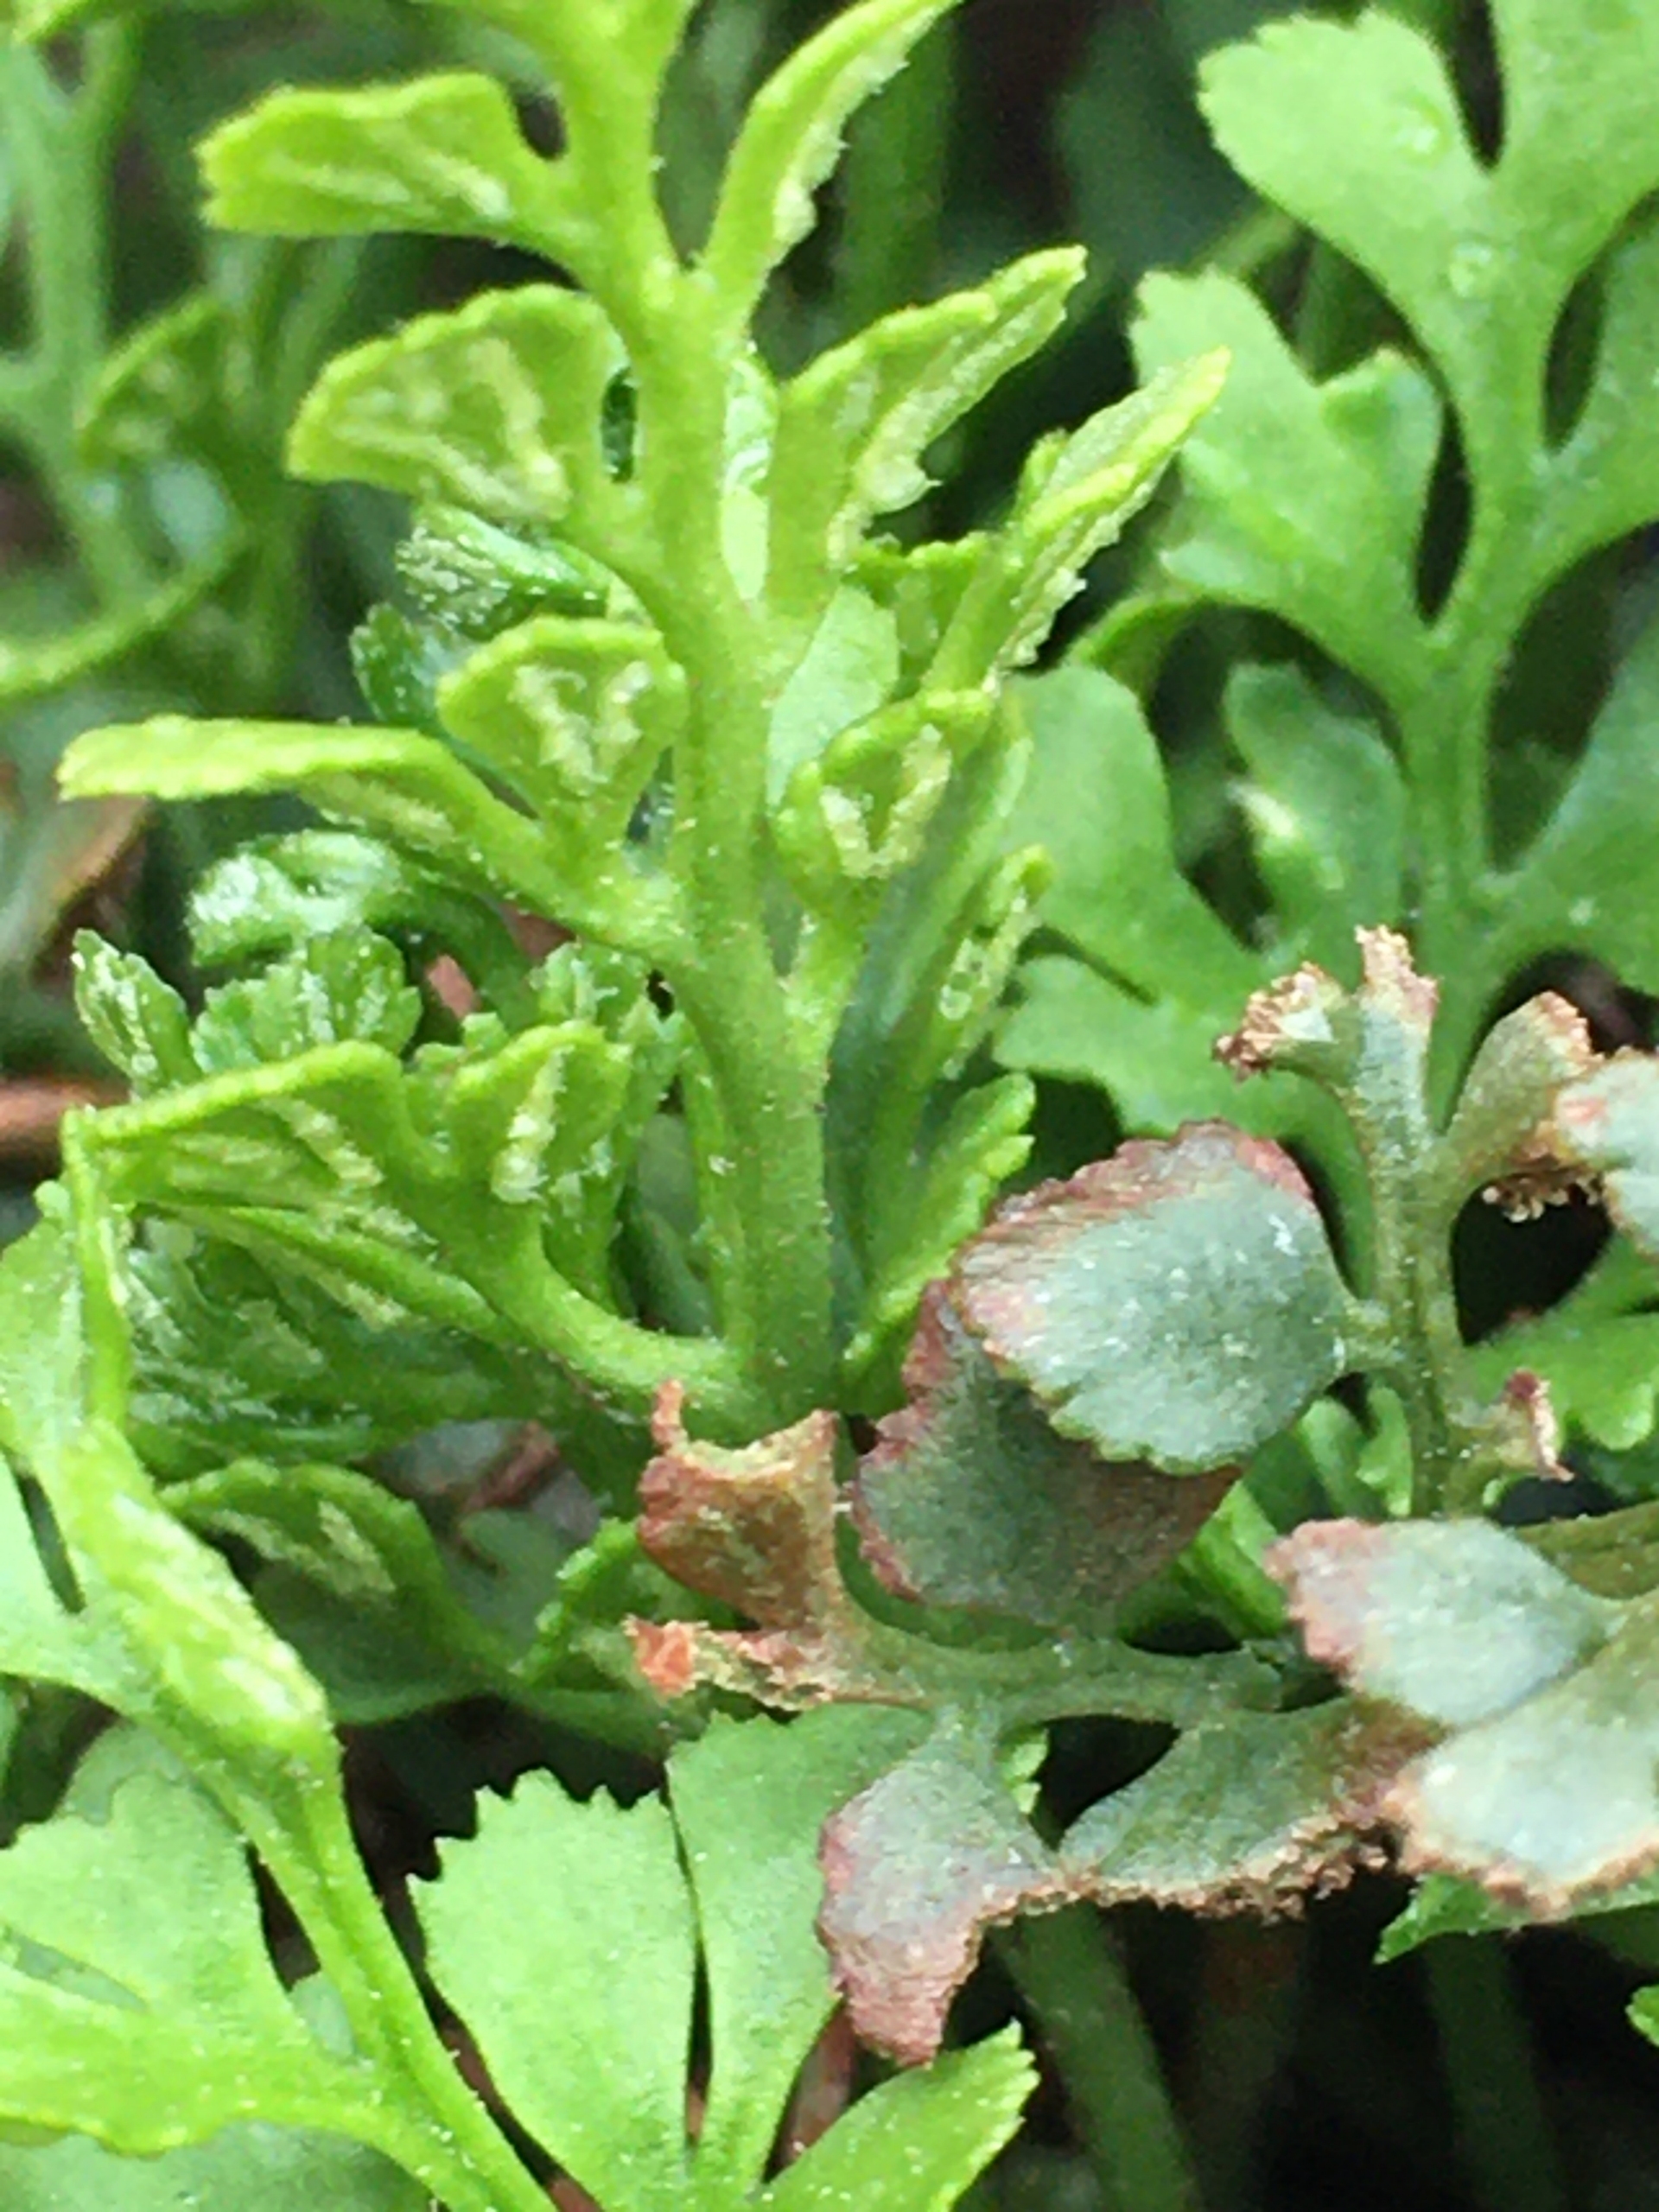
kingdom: Plantae
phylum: Tracheophyta
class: Polypodiopsida
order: Polypodiales
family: Aspleniaceae
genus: Asplenium
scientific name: Asplenium ruta-muraria
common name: Murrude
